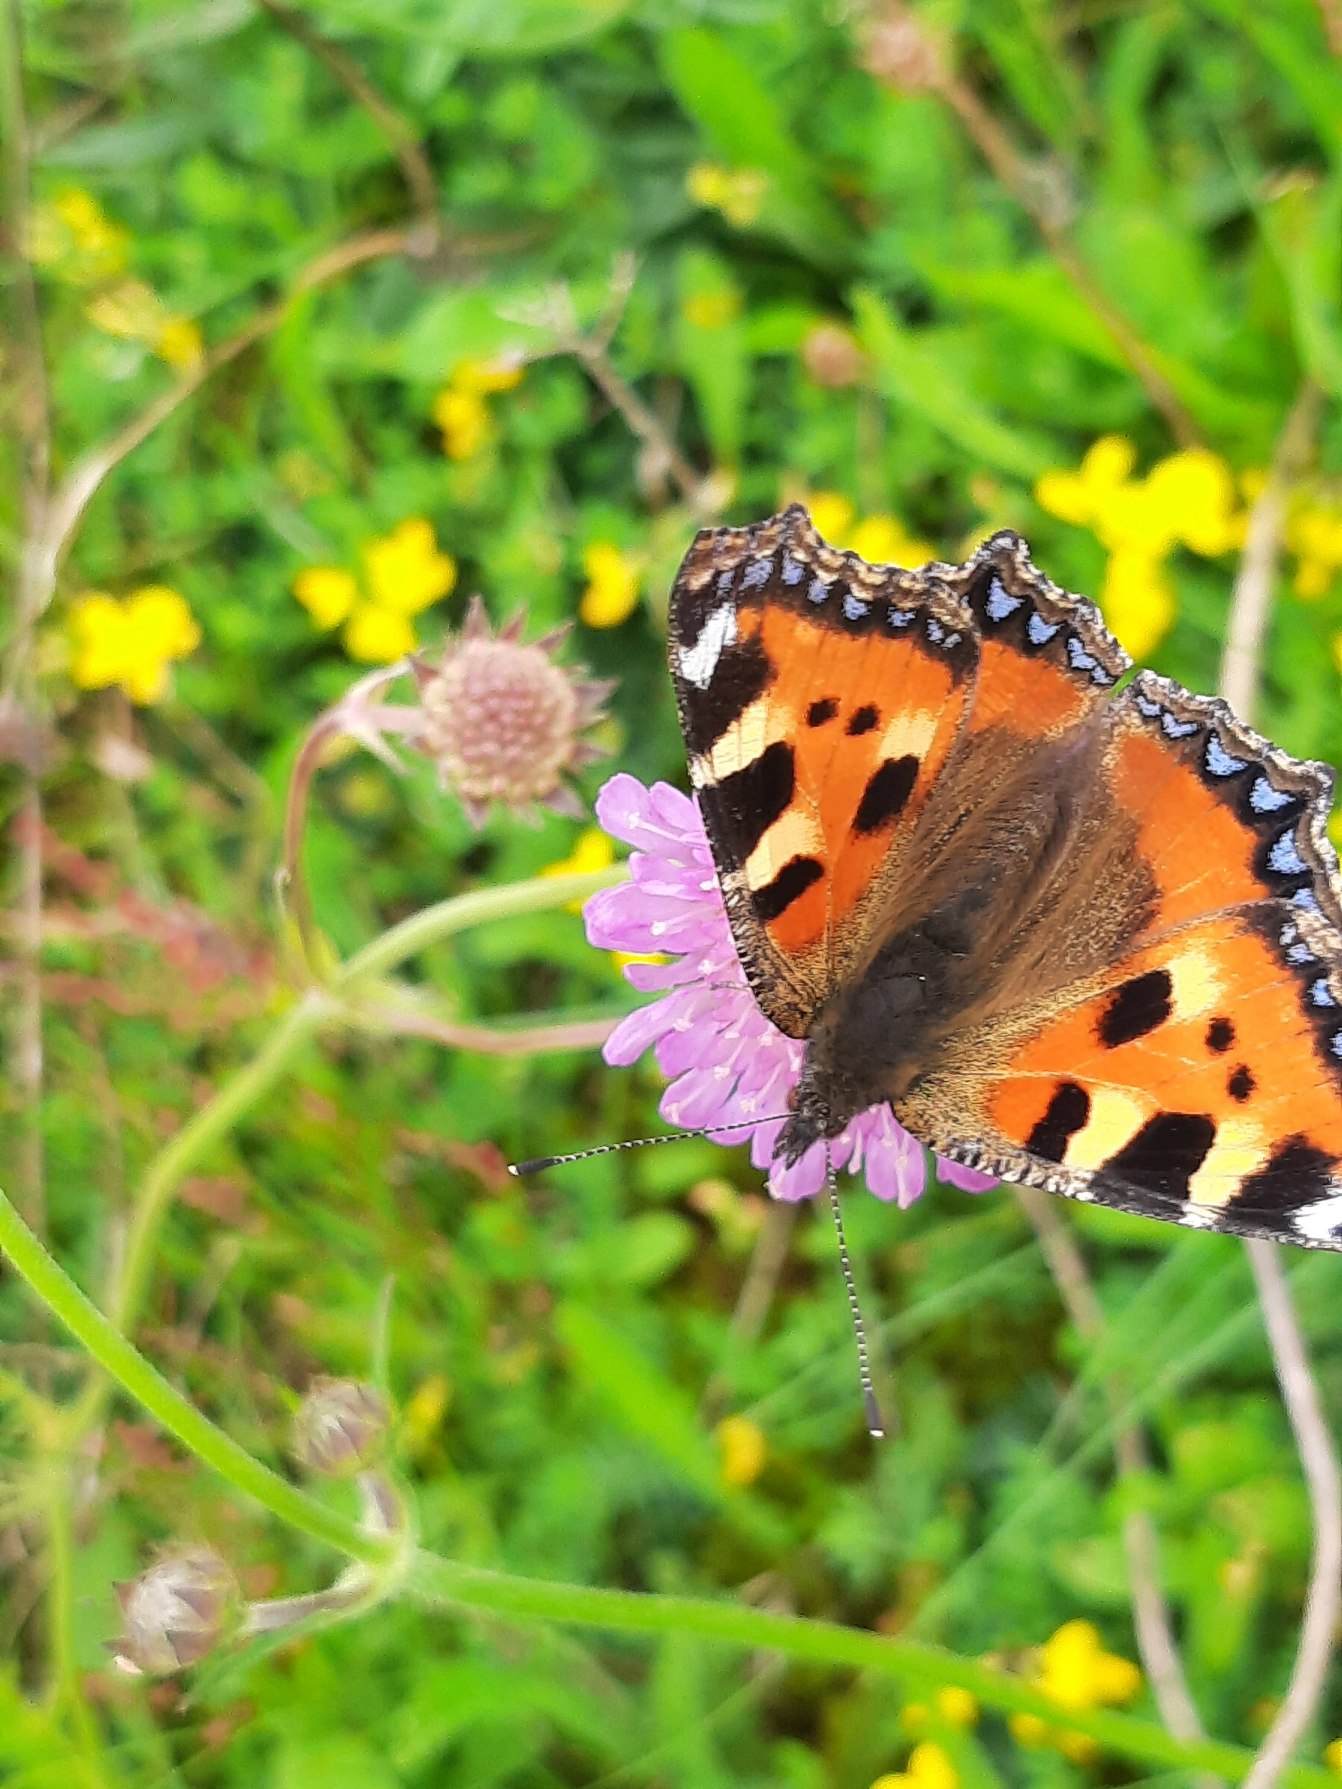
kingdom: Animalia
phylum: Arthropoda
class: Insecta
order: Lepidoptera
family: Nymphalidae
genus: Aglais
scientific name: Aglais urticae
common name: Nældens takvinge
